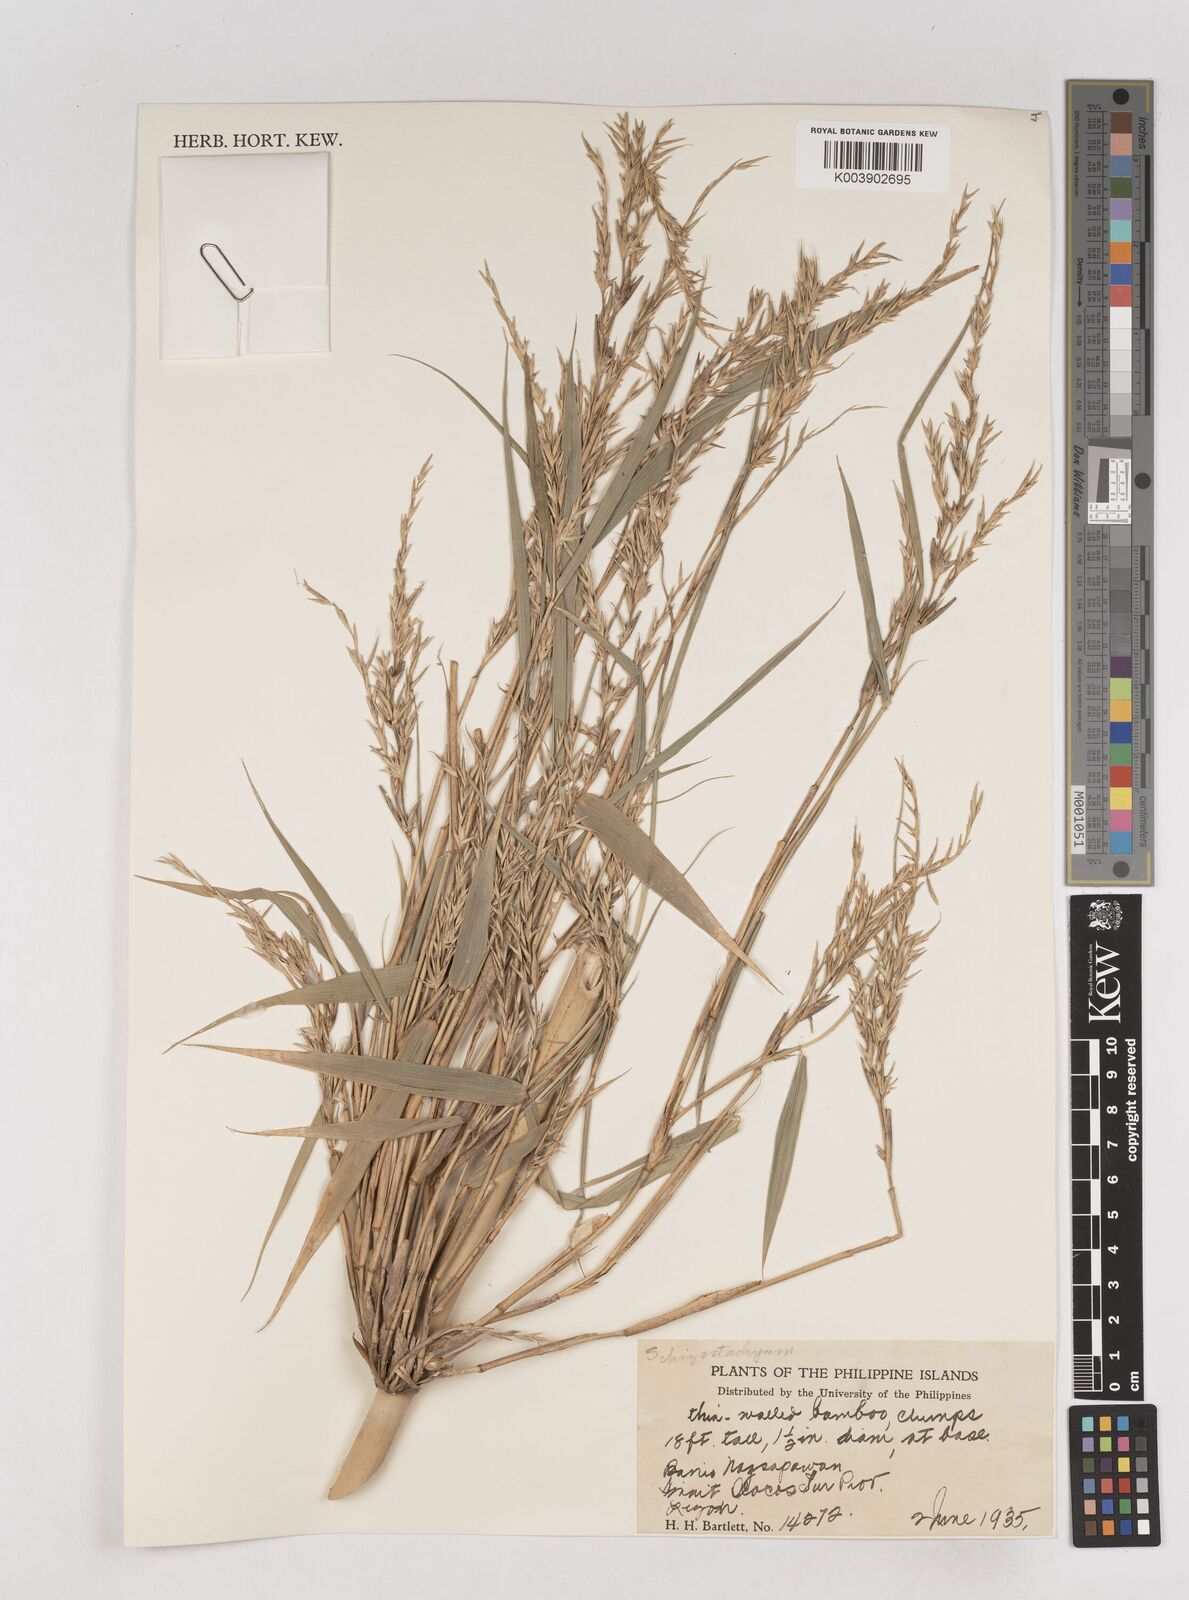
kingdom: Plantae
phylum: Tracheophyta
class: Liliopsida
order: Poales
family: Poaceae
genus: Schizostachyum
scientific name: Schizostachyum lumampao
